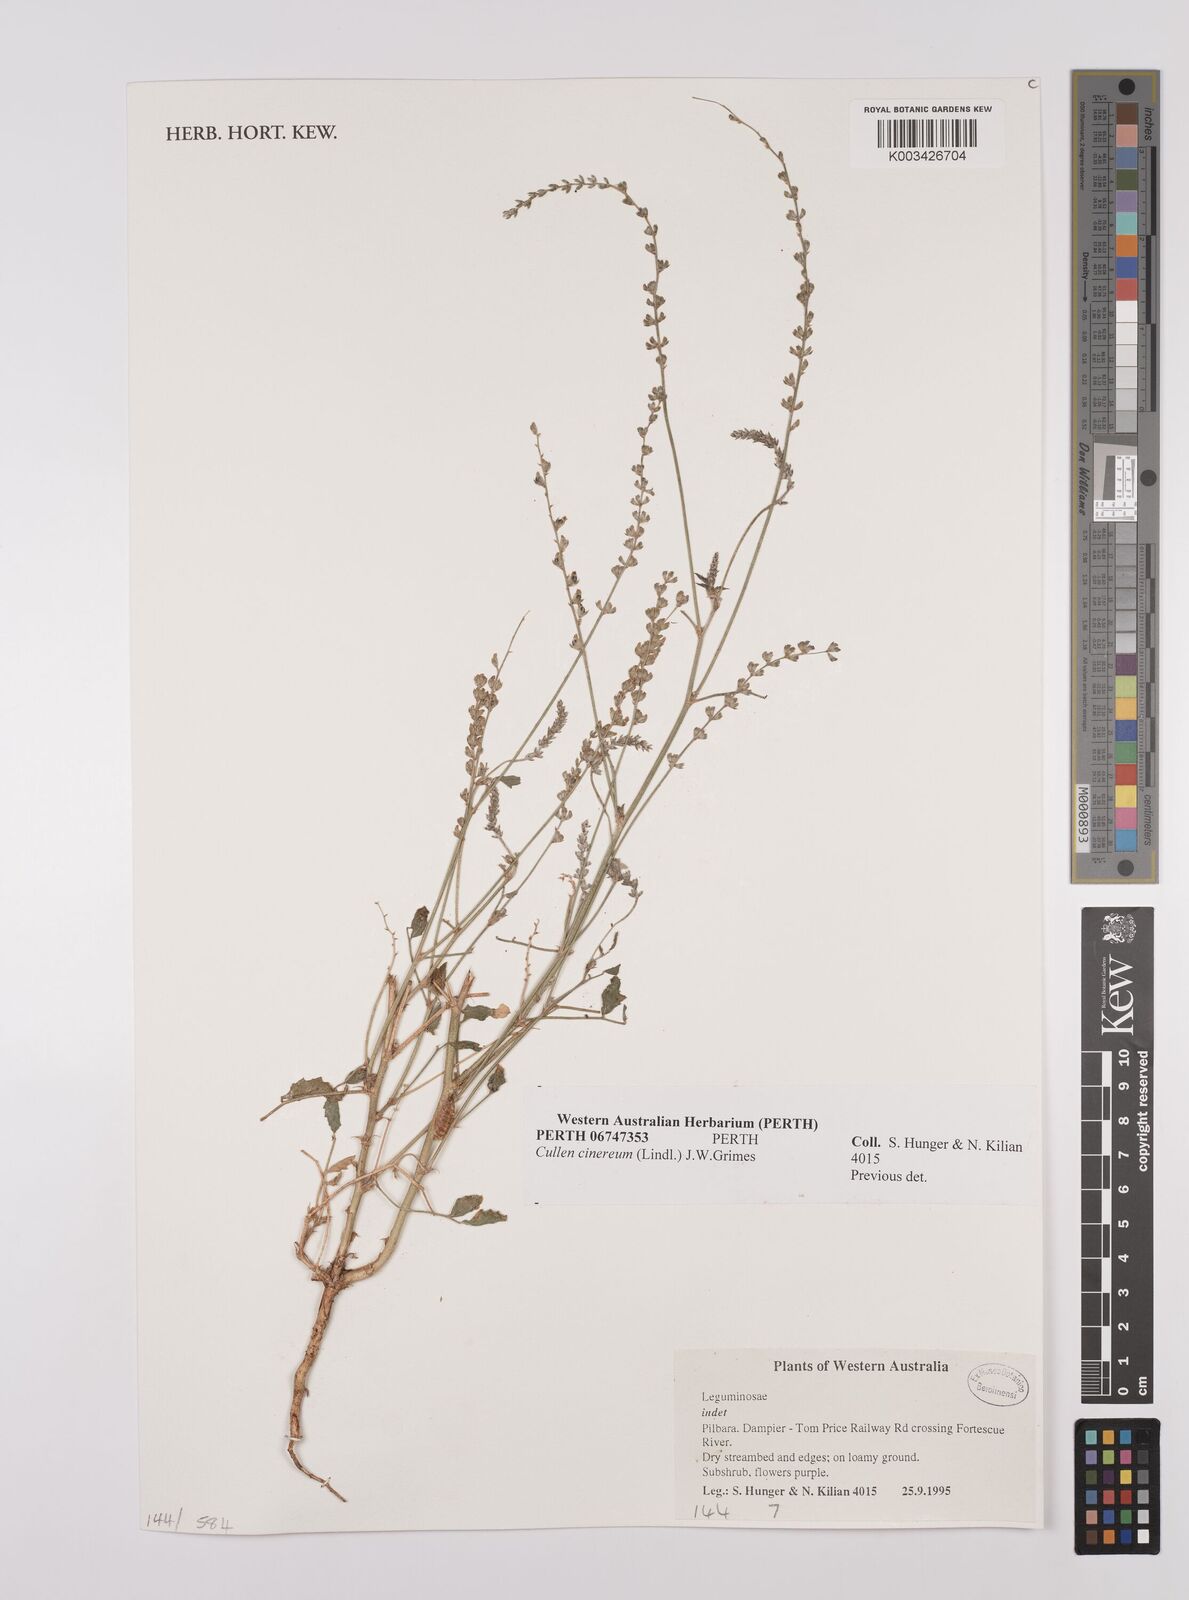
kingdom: Plantae
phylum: Tracheophyta
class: Magnoliopsida
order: Fabales
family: Fabaceae
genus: Cullen
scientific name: Cullen cinereum
